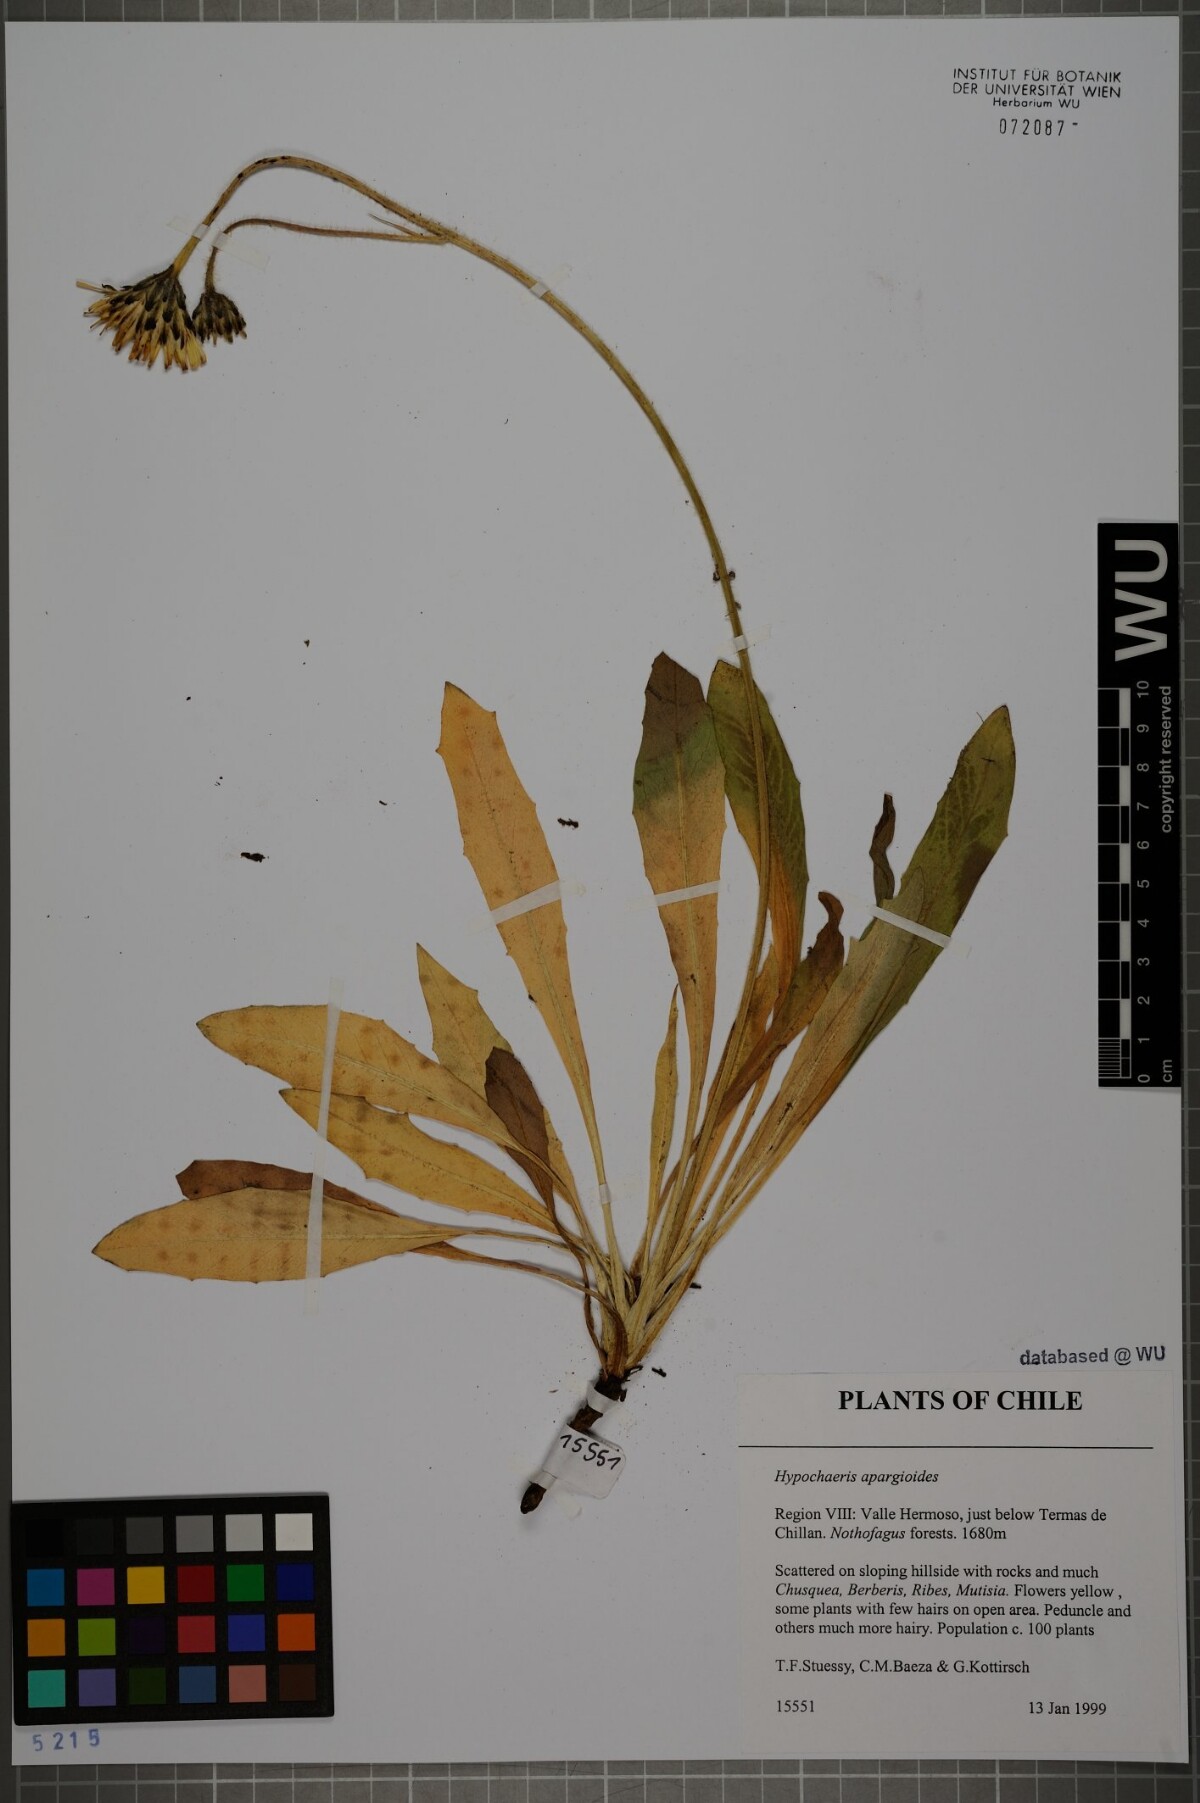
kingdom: Plantae
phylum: Tracheophyta
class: Magnoliopsida
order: Asterales
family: Asteraceae
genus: Hypochaeris
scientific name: Hypochaeris apargioides
